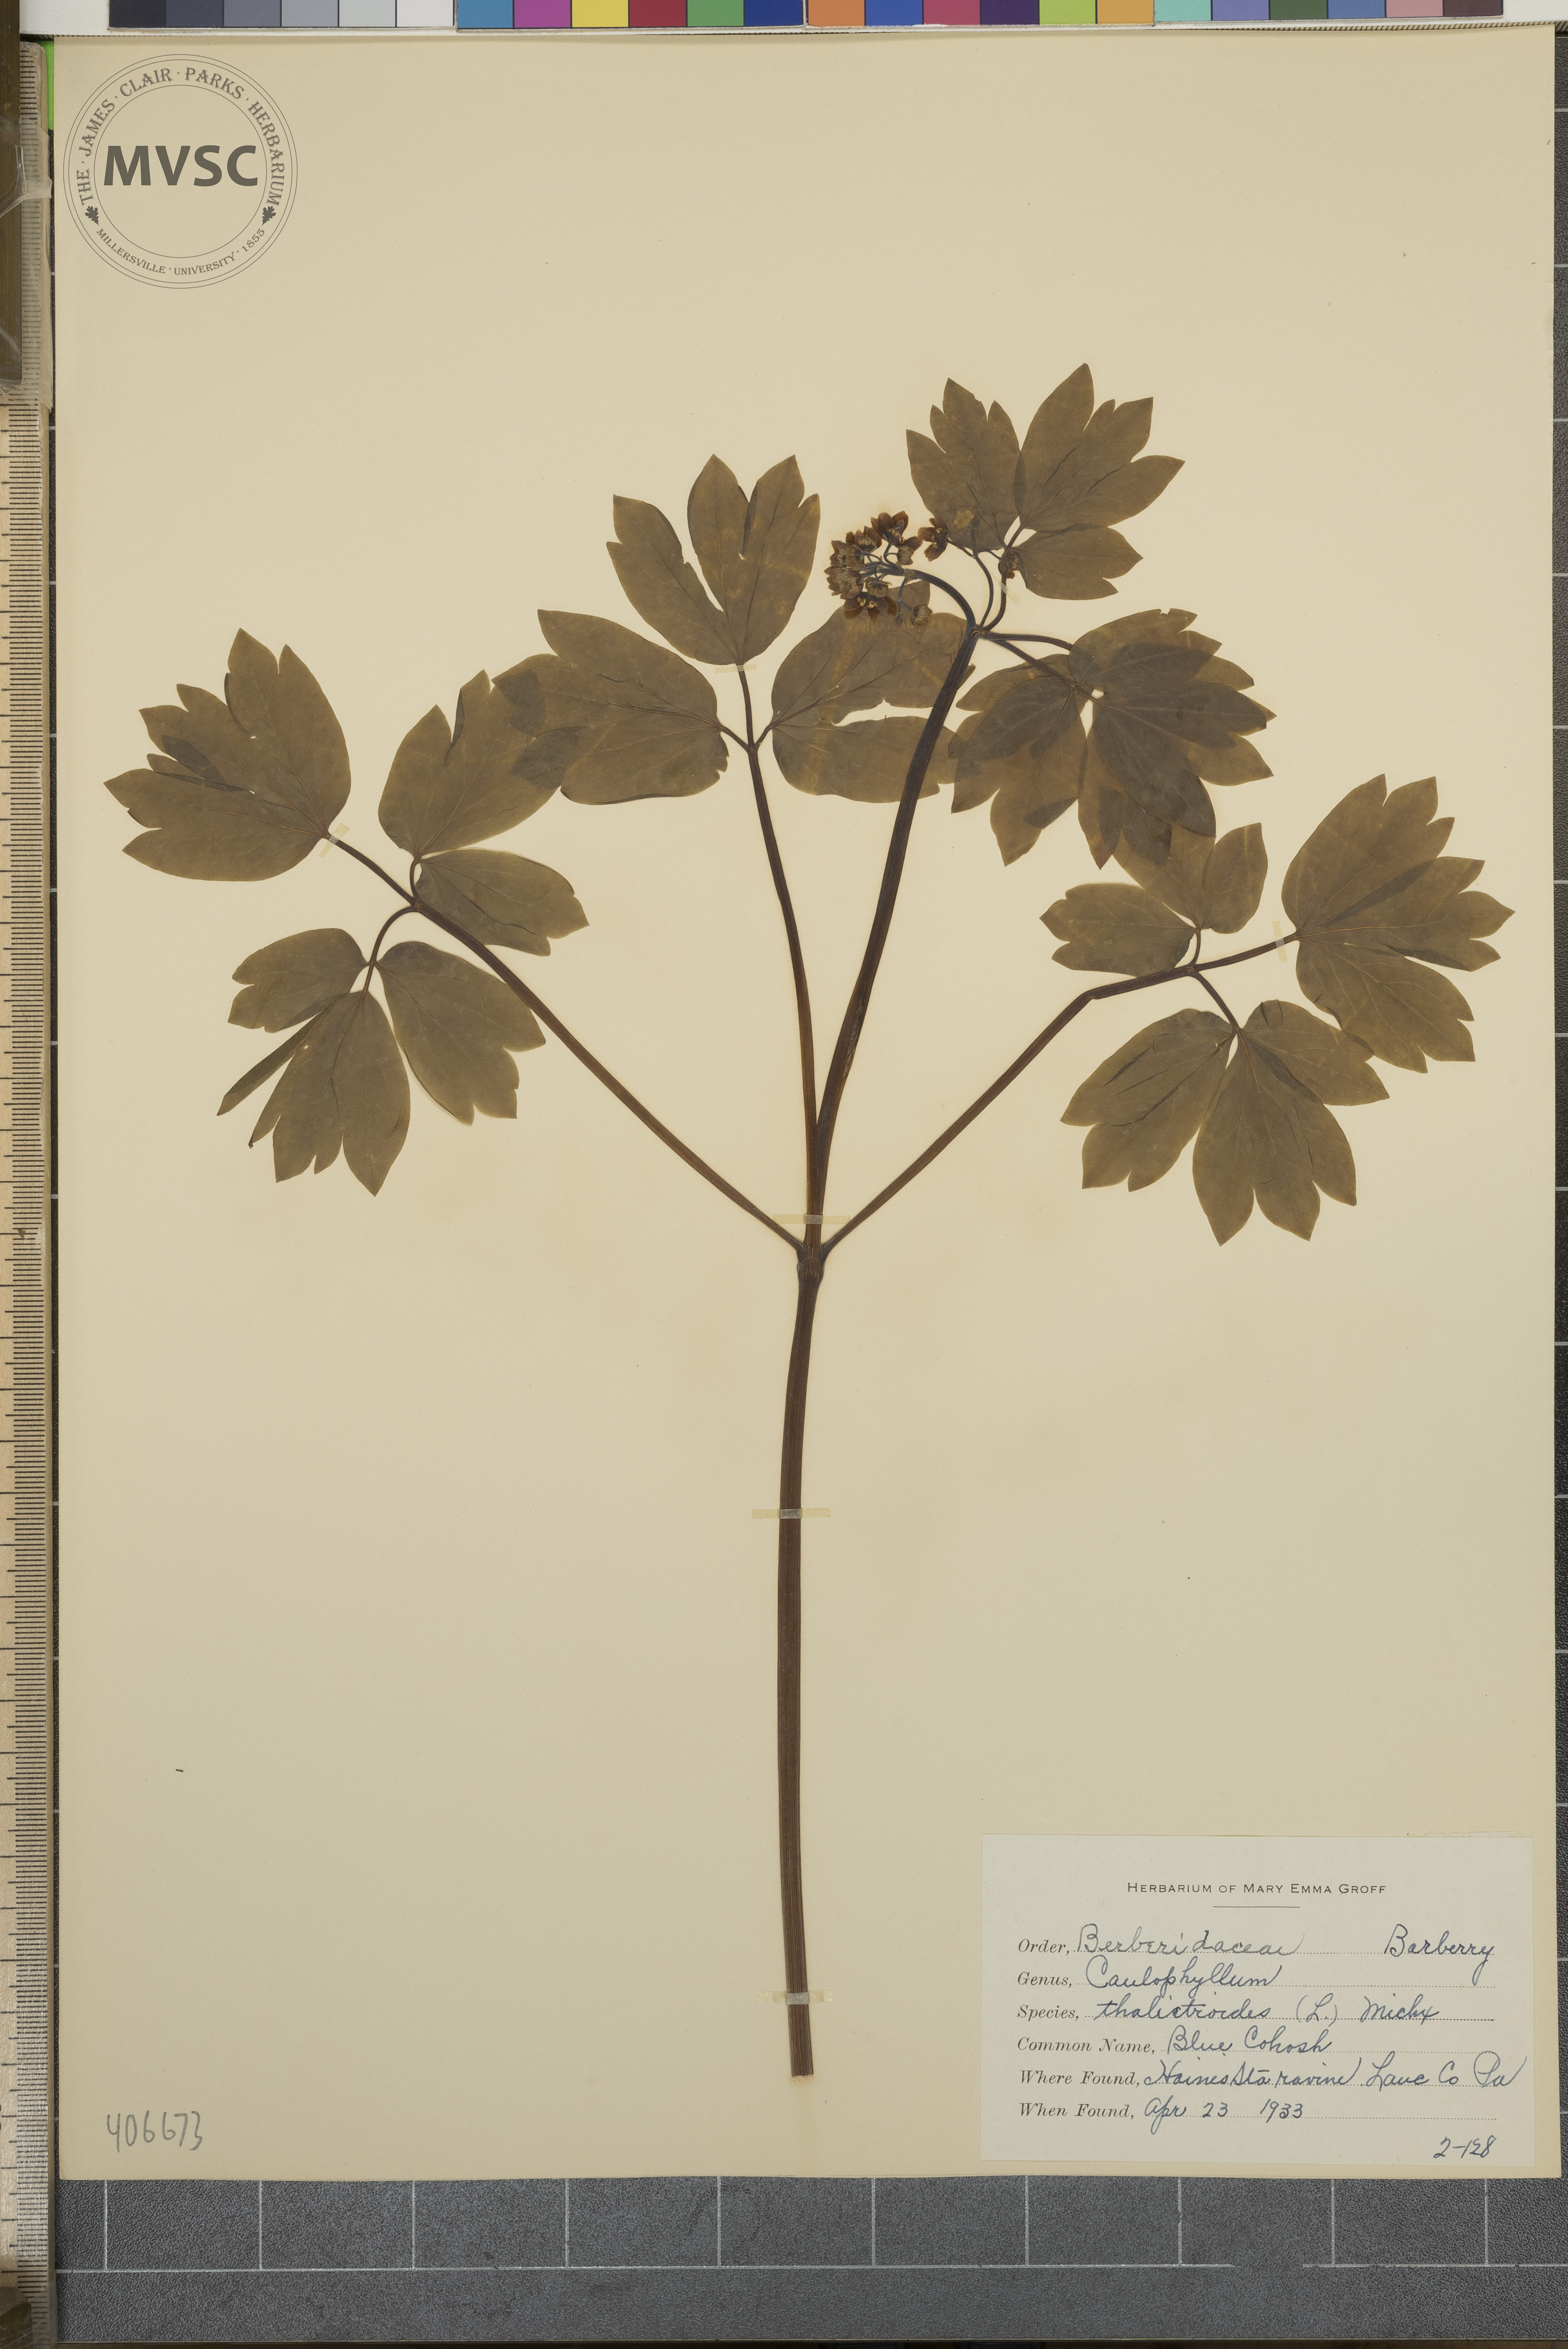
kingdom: Plantae
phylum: Tracheophyta
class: Magnoliopsida
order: Ranunculales
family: Berberidaceae
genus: Caulophyllum
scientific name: Caulophyllum thalictroides
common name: Blue Cohosh
